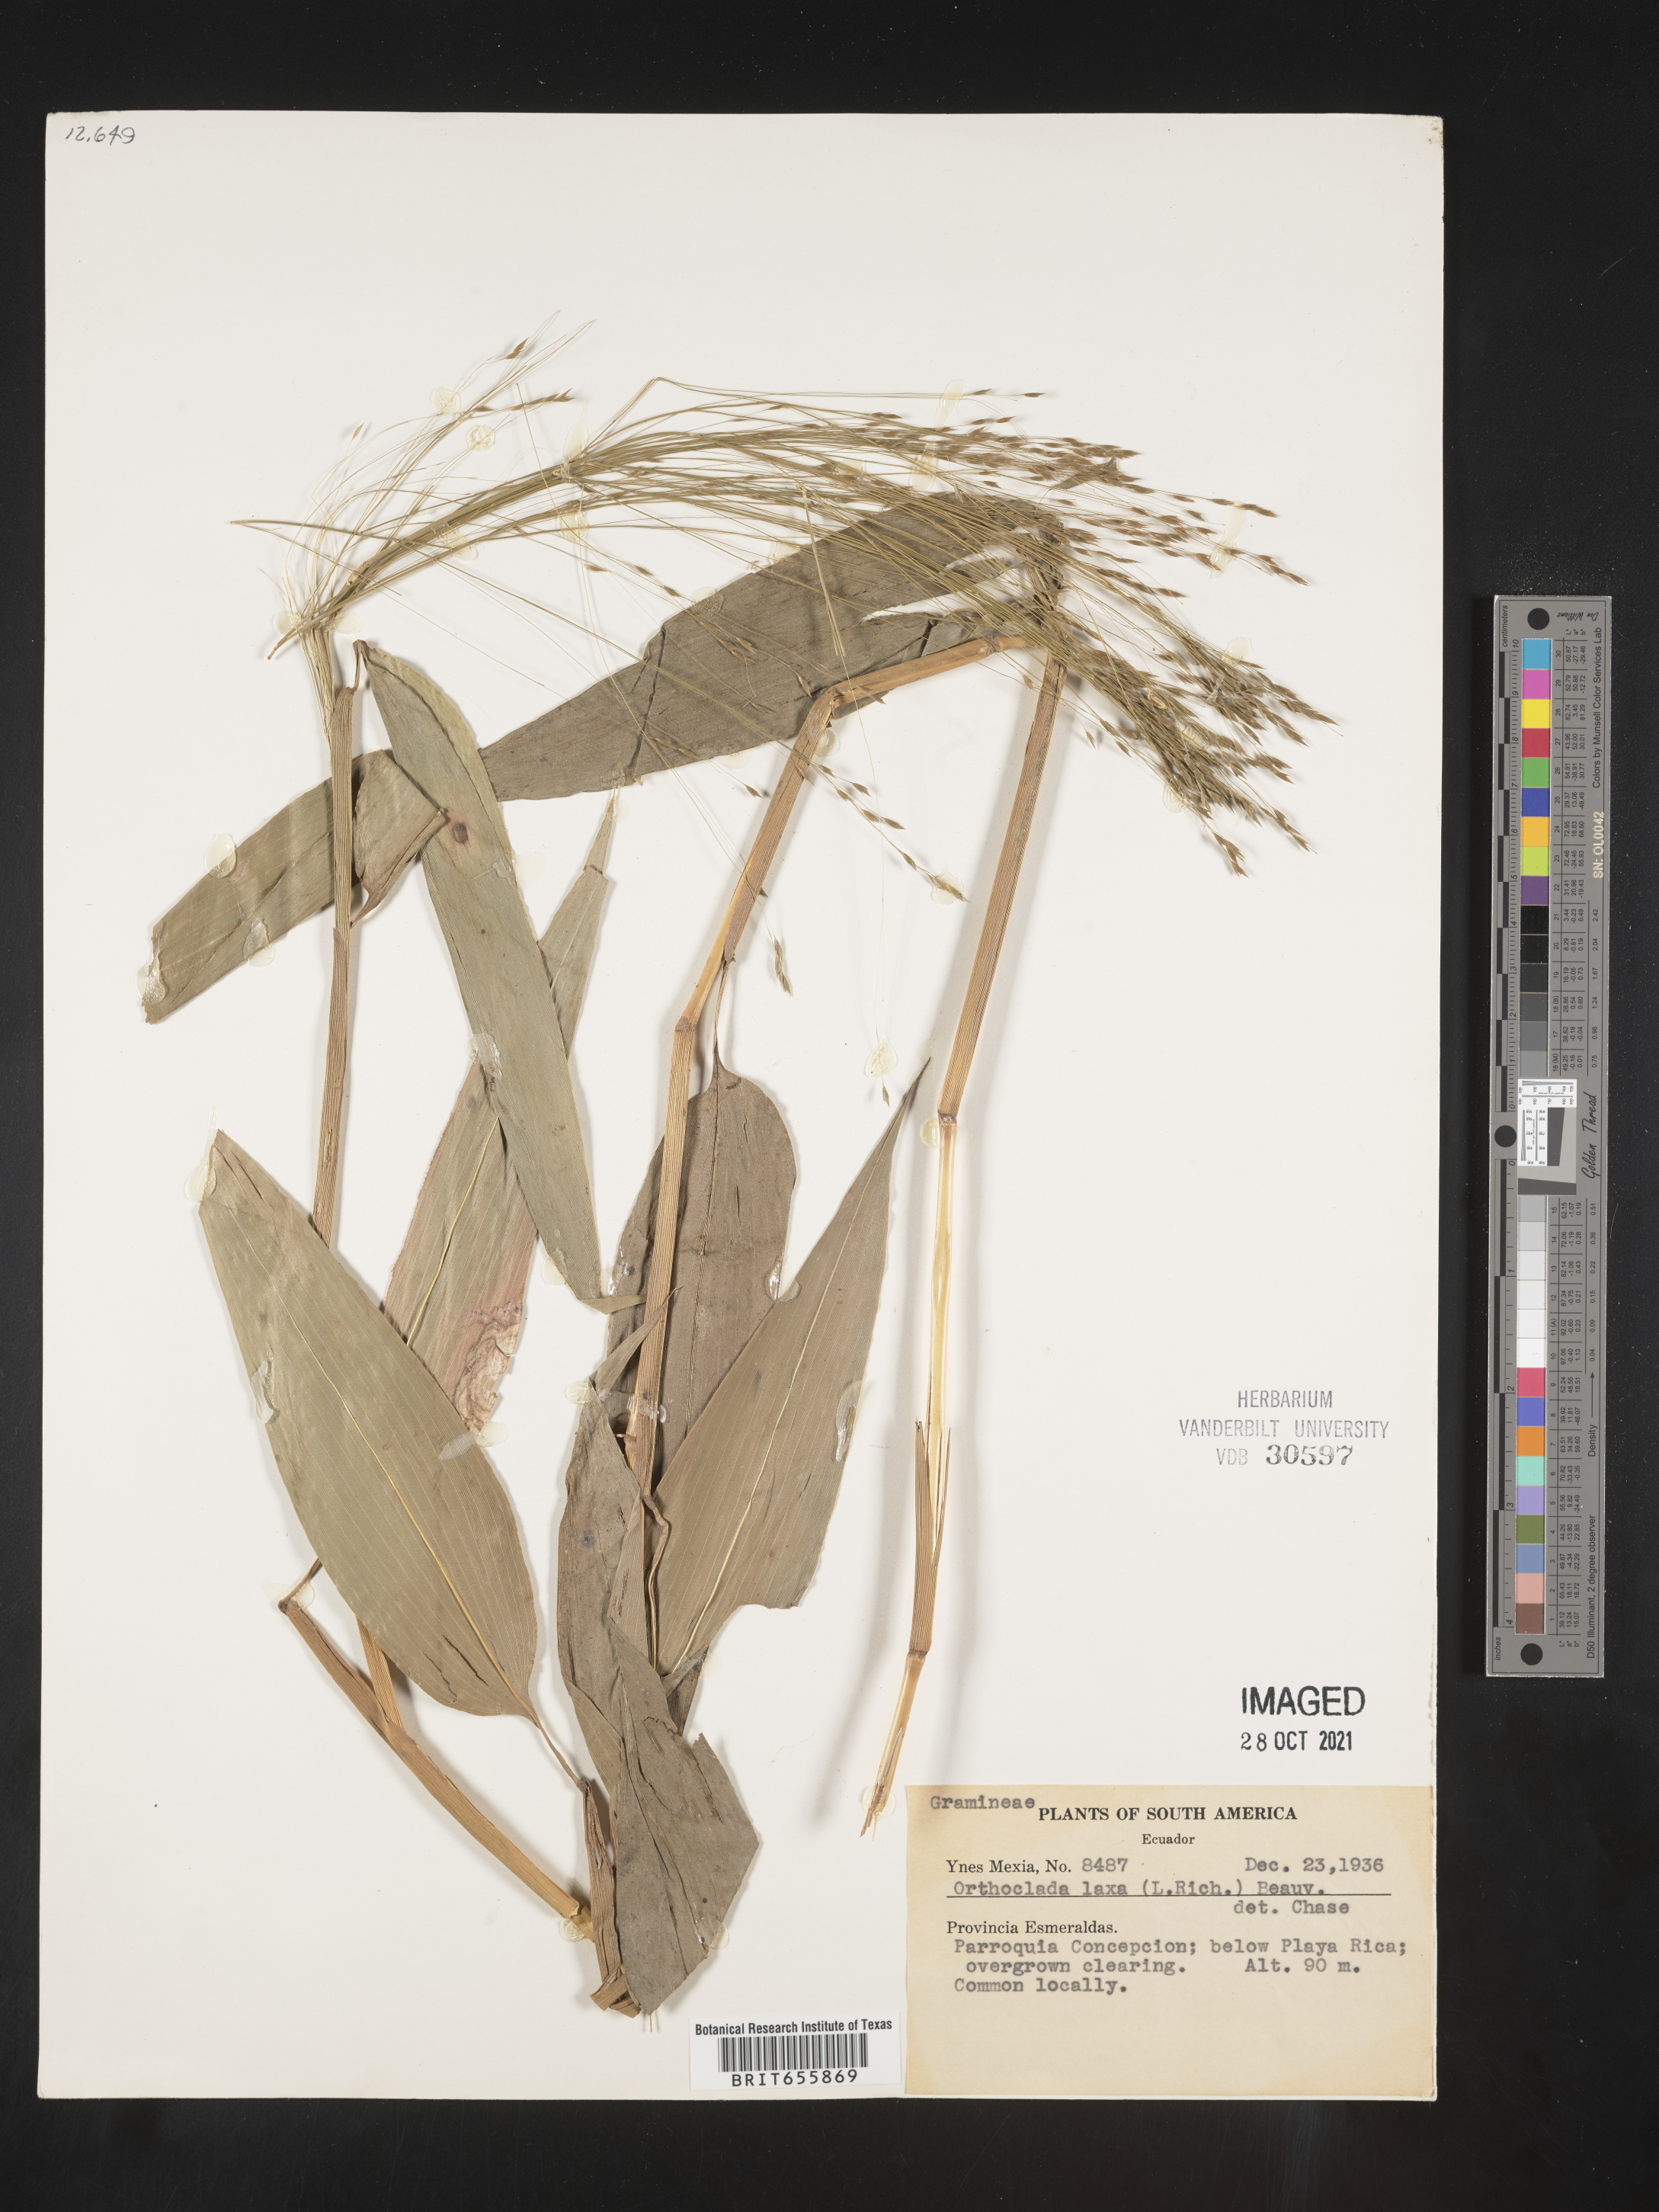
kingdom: Plantae
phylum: Tracheophyta
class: Liliopsida
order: Poales
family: Poaceae
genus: Orthoclada
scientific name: Orthoclada
